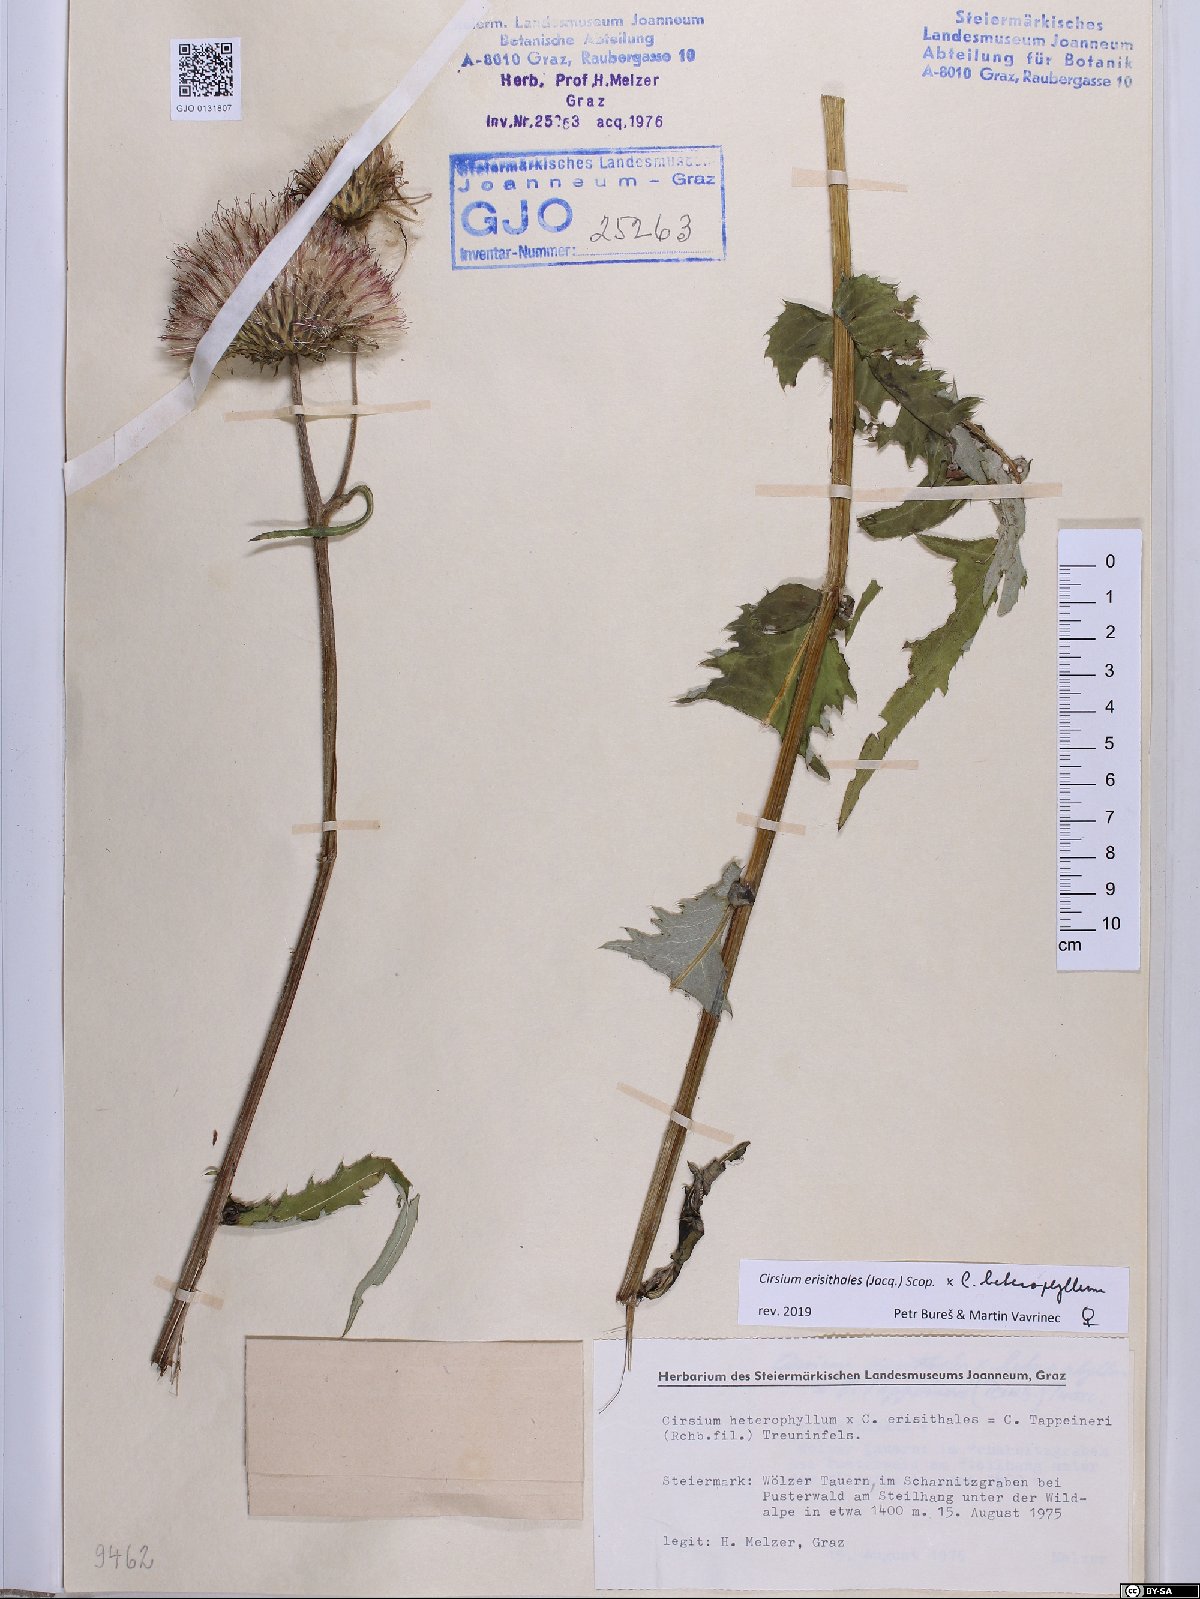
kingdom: Plantae
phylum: Tracheophyta
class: Magnoliopsida
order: Asterales
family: Asteraceae
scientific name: Asteraceae
